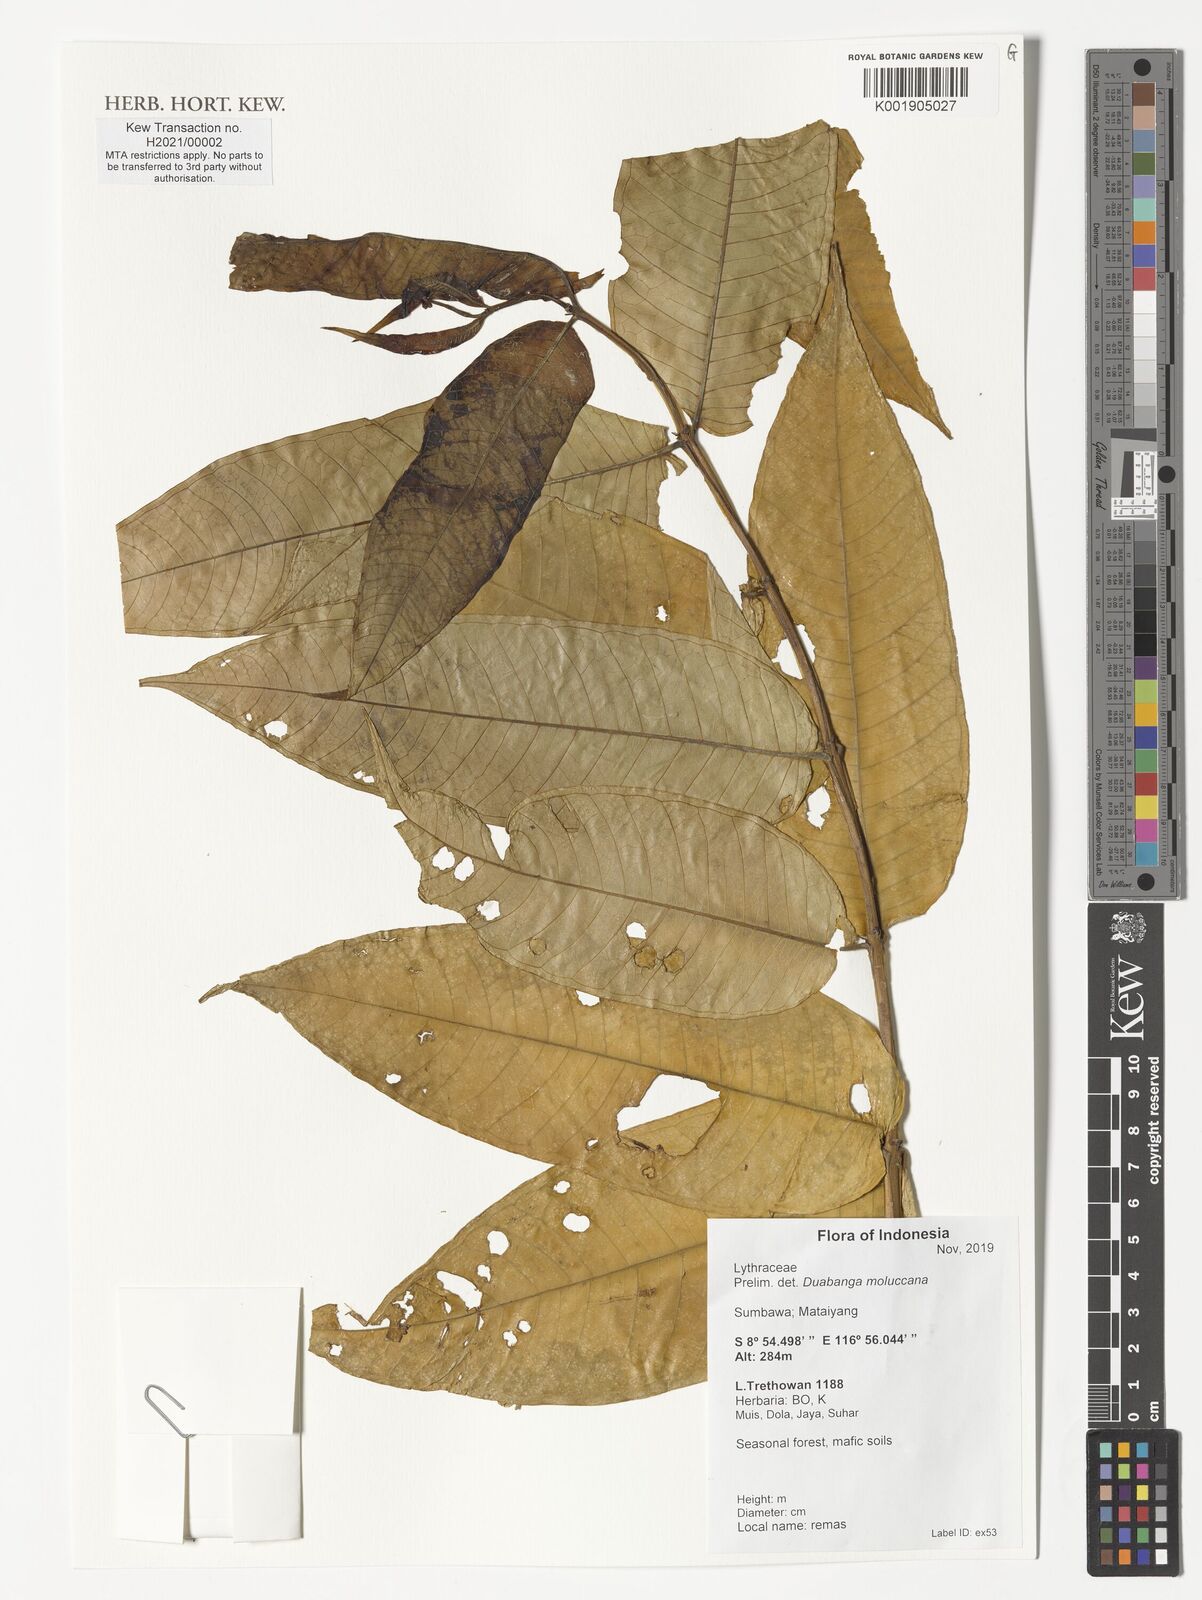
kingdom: Plantae
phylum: Tracheophyta
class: Magnoliopsida
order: Myrtales
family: Lythraceae
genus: Duabanga
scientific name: Duabanga moluccana
